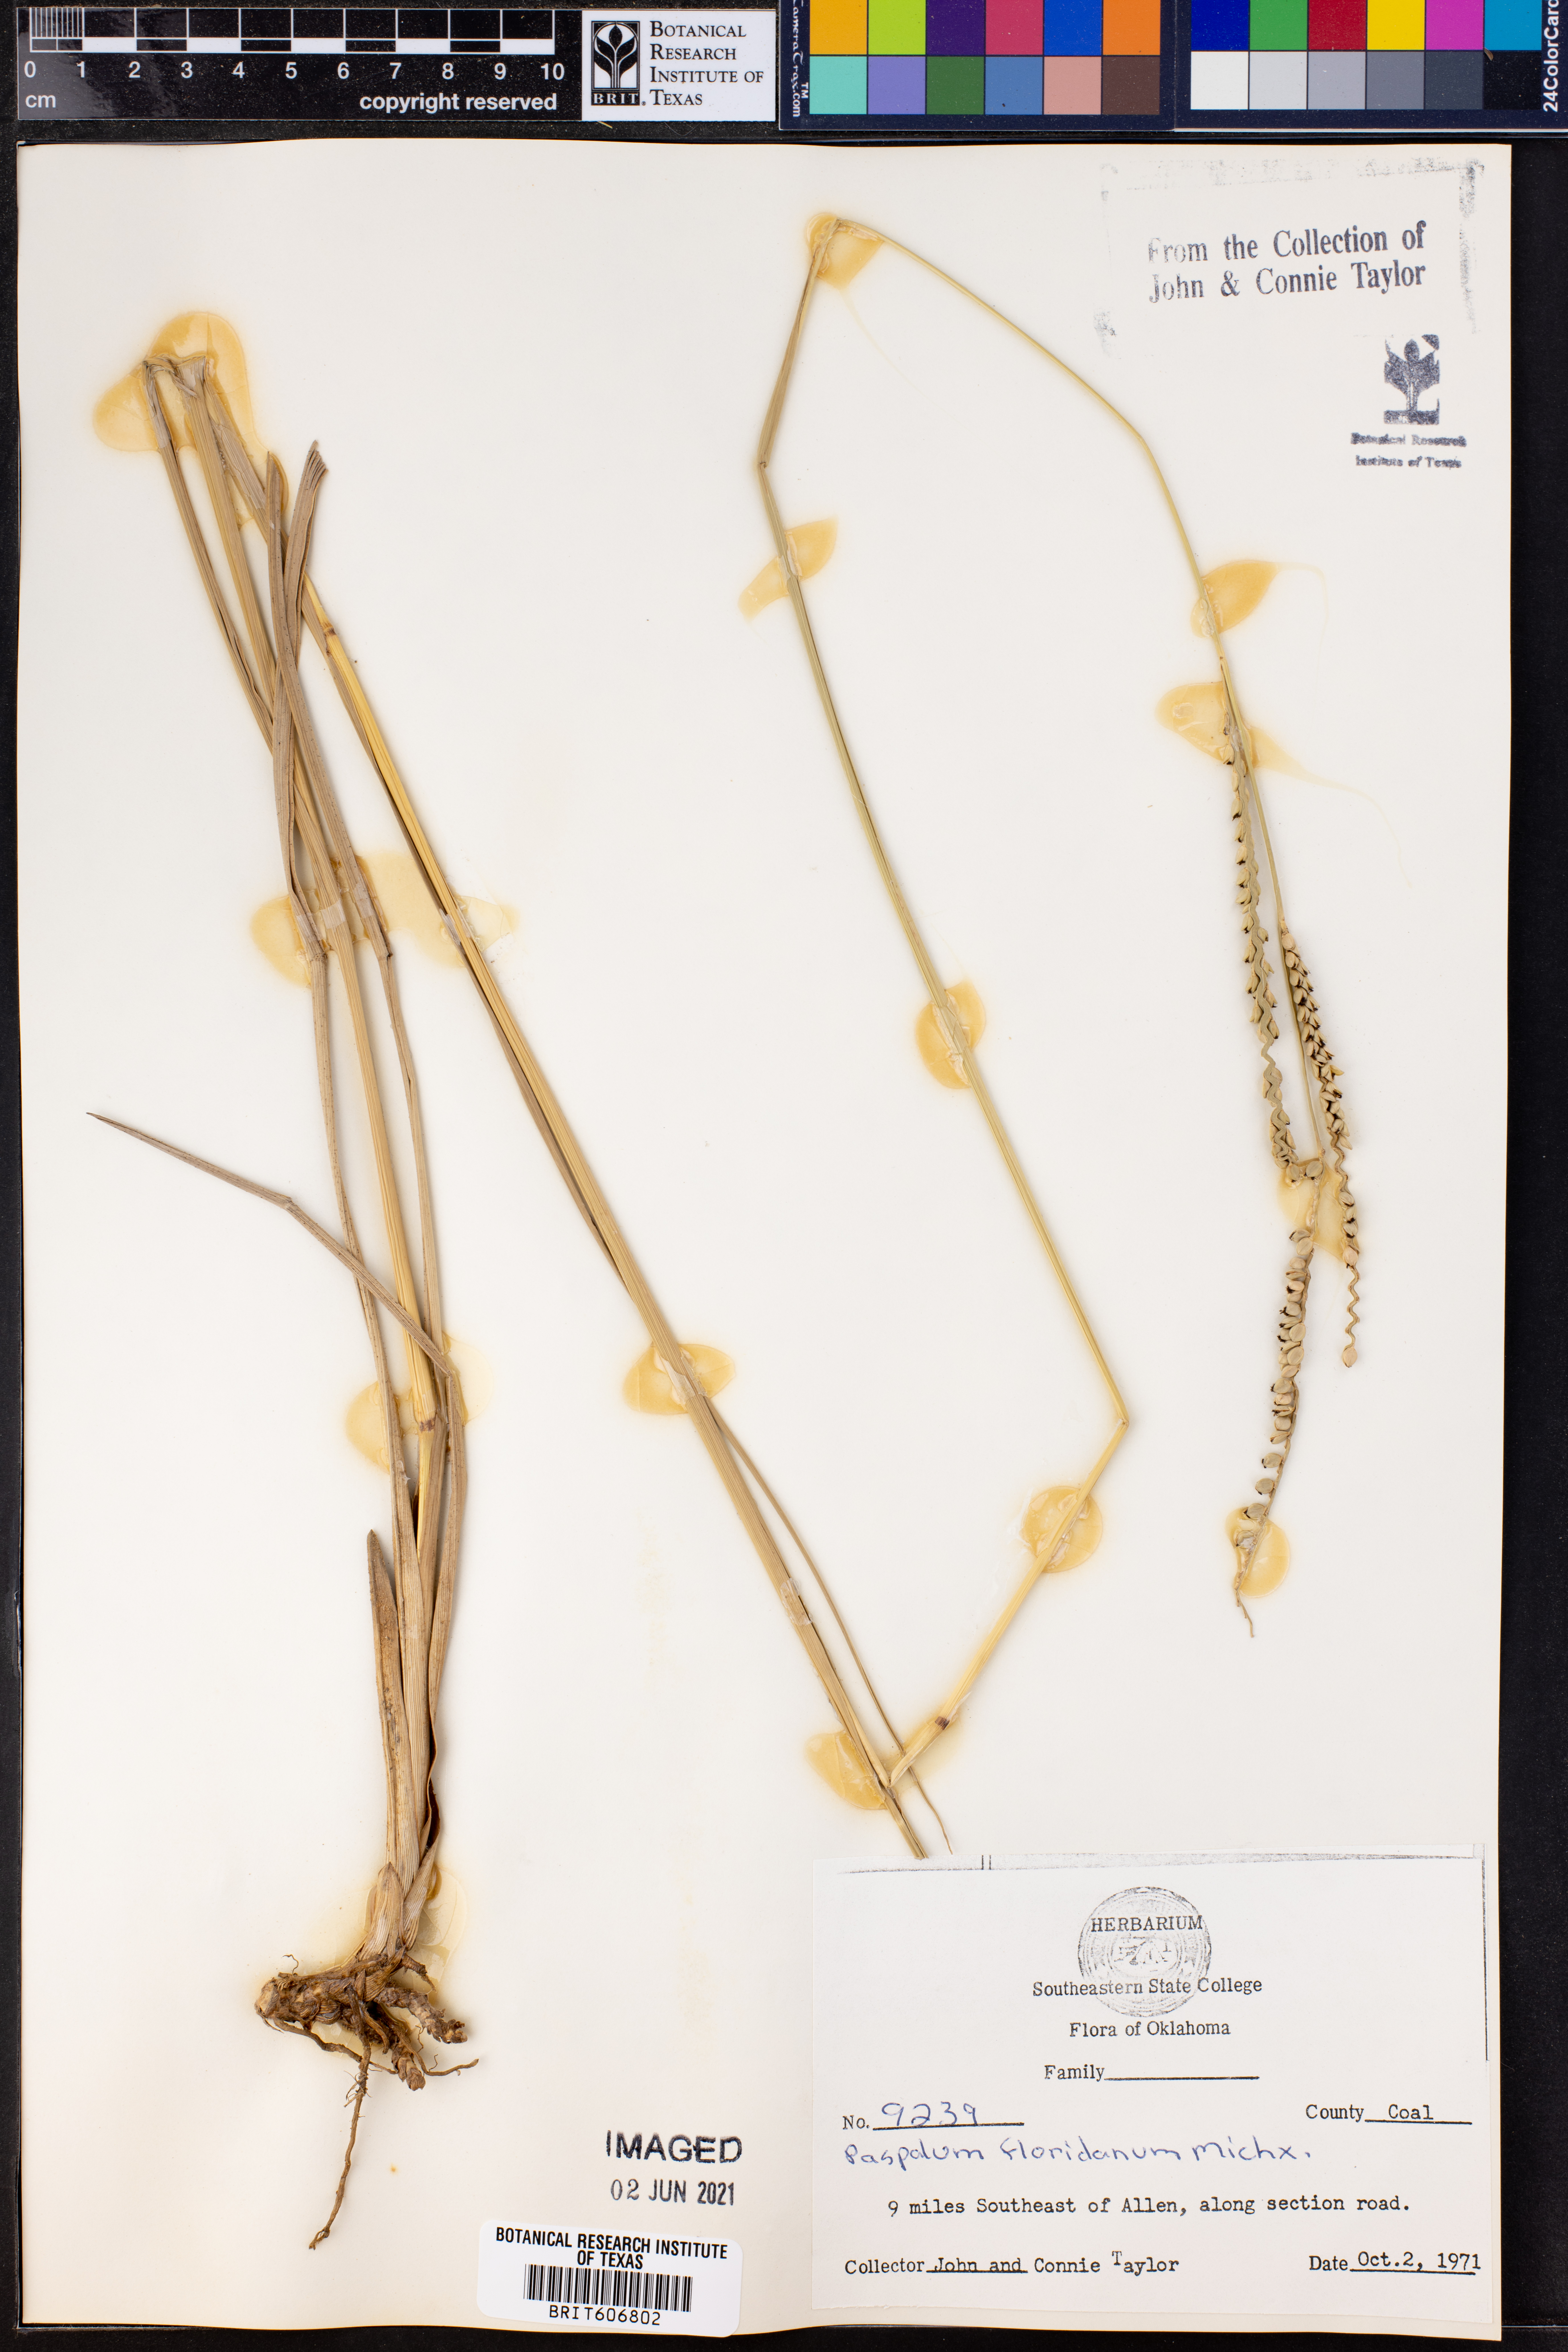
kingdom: Plantae
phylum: Tracheophyta
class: Liliopsida
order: Poales
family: Poaceae
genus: Paspalum
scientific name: Paspalum floridanum
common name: Florida paspalum
